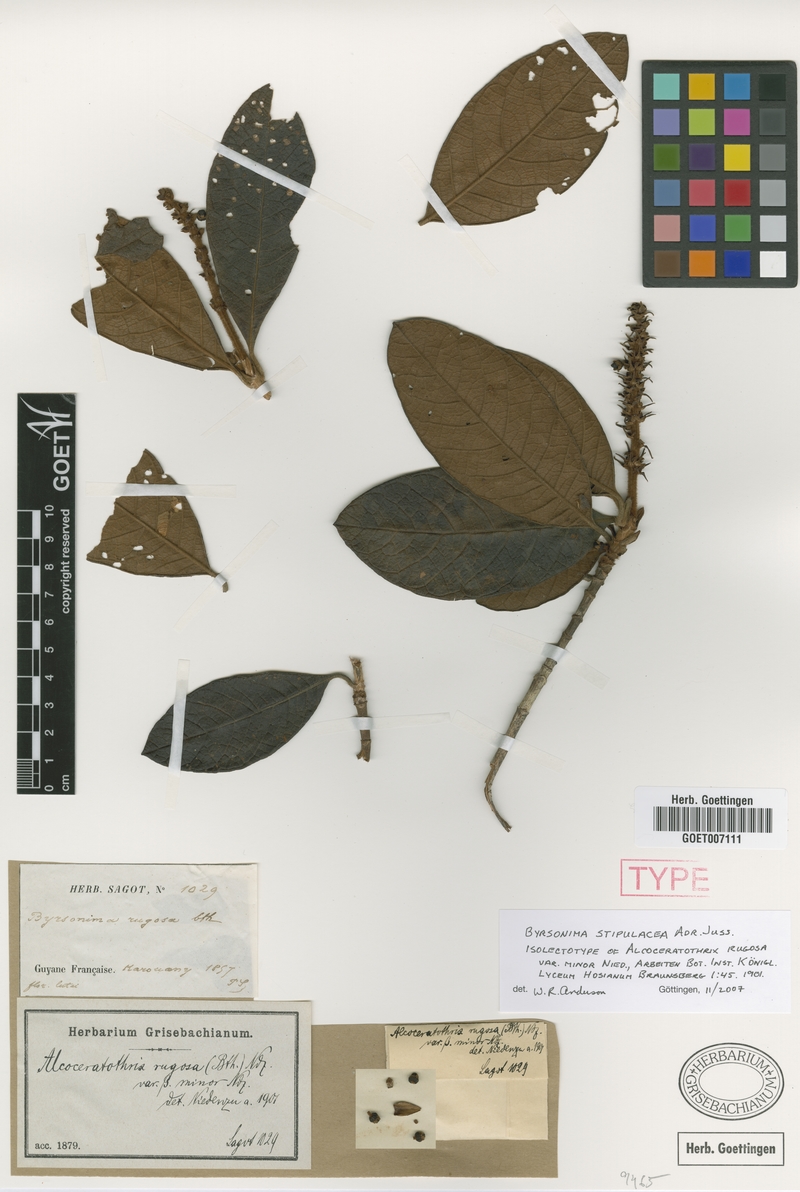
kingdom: Plantae
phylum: Tracheophyta
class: Magnoliopsida
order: Malpighiales
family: Malpighiaceae
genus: Byrsonima
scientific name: Byrsonima stipulacea
